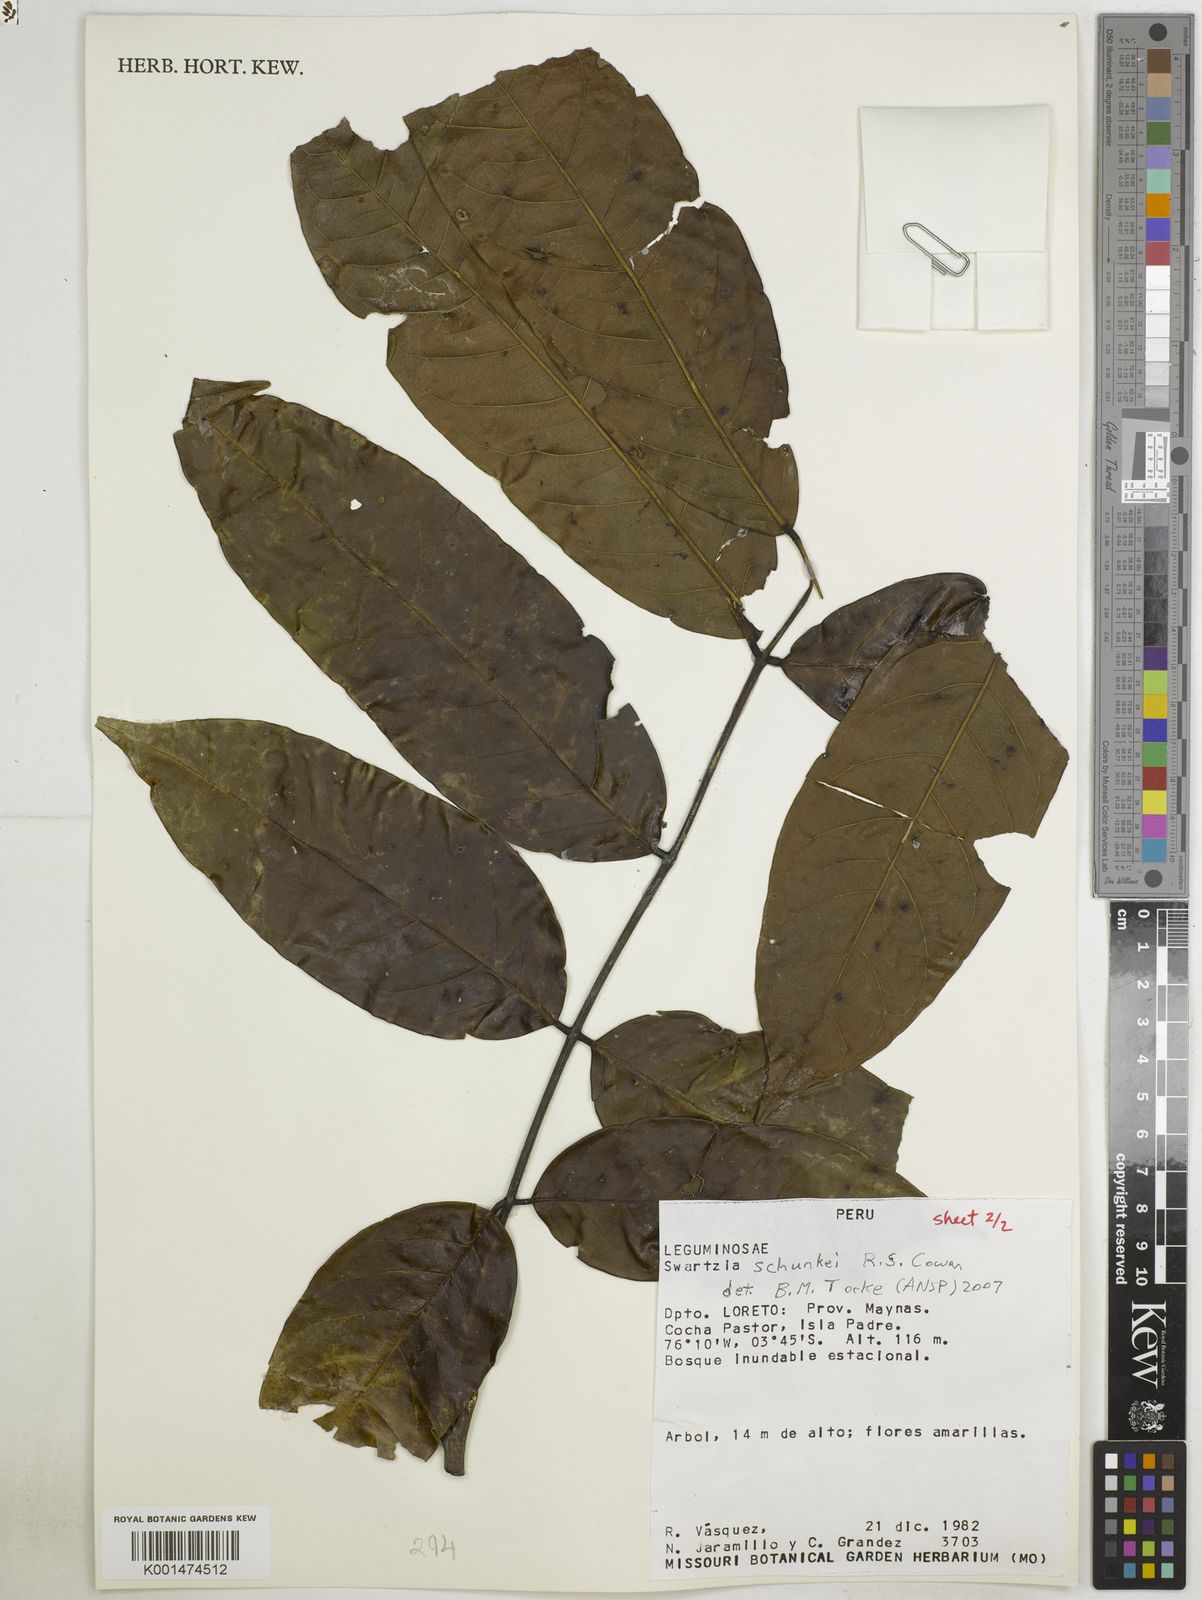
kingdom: Plantae
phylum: Tracheophyta
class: Magnoliopsida
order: Fabales
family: Fabaceae
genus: Swartzia
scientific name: Swartzia schunkei
